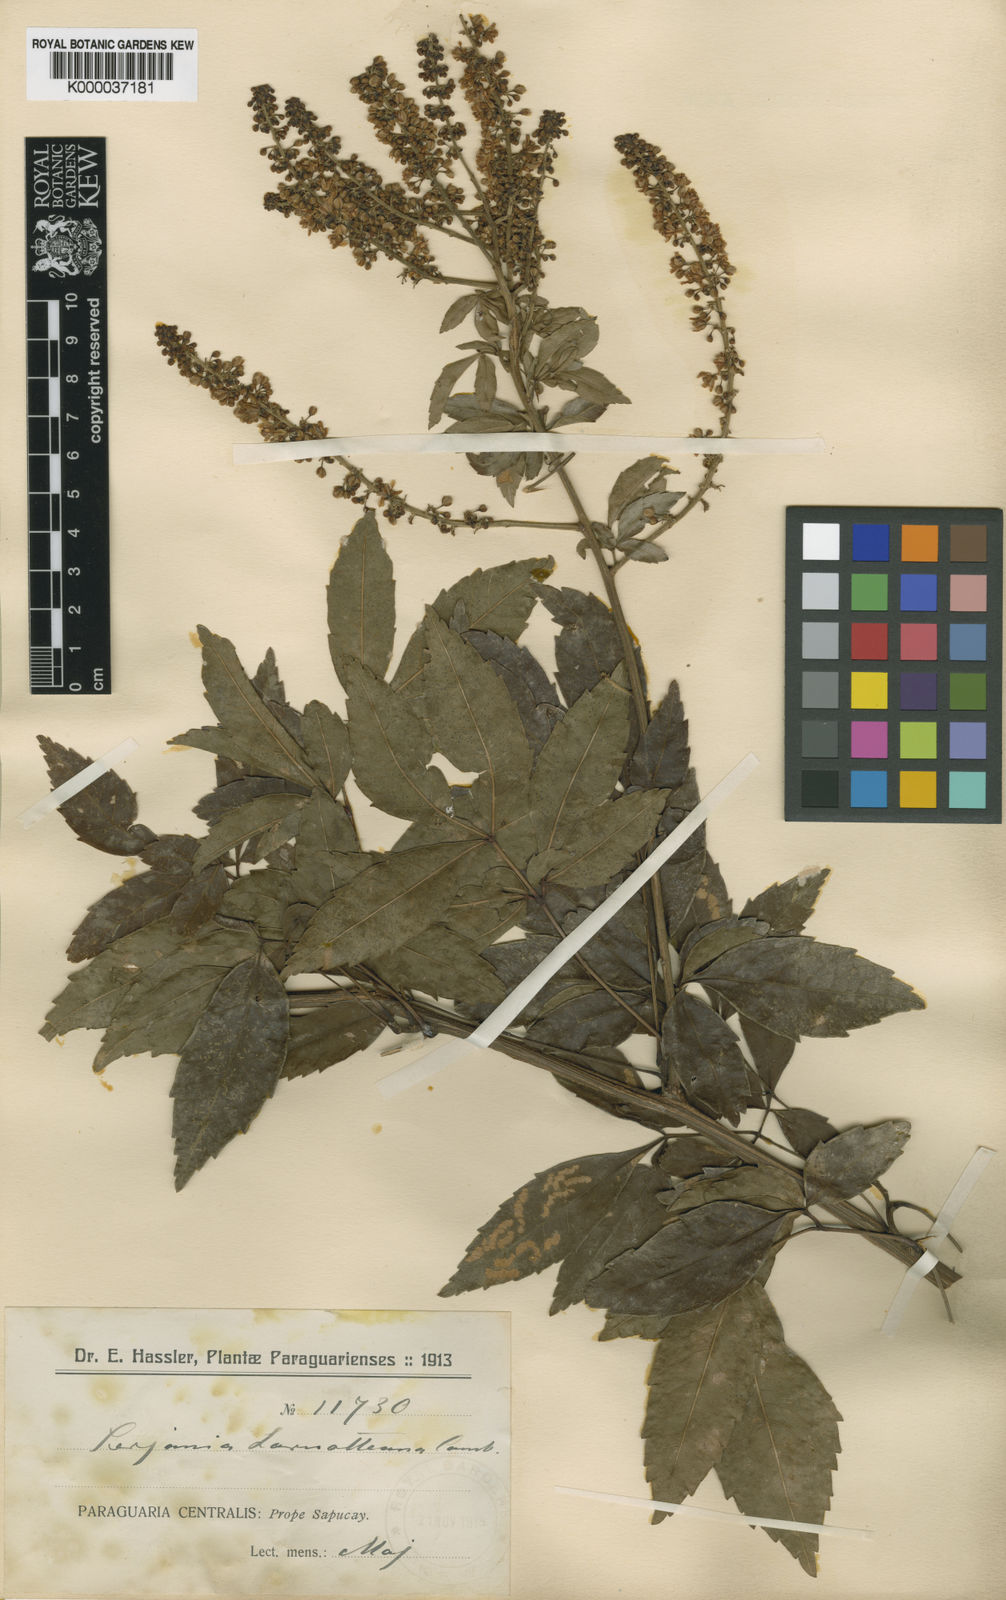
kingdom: Plantae
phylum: Tracheophyta
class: Magnoliopsida
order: Sapindales
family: Sapindaceae
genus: Serjania
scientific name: Serjania laruotteana
